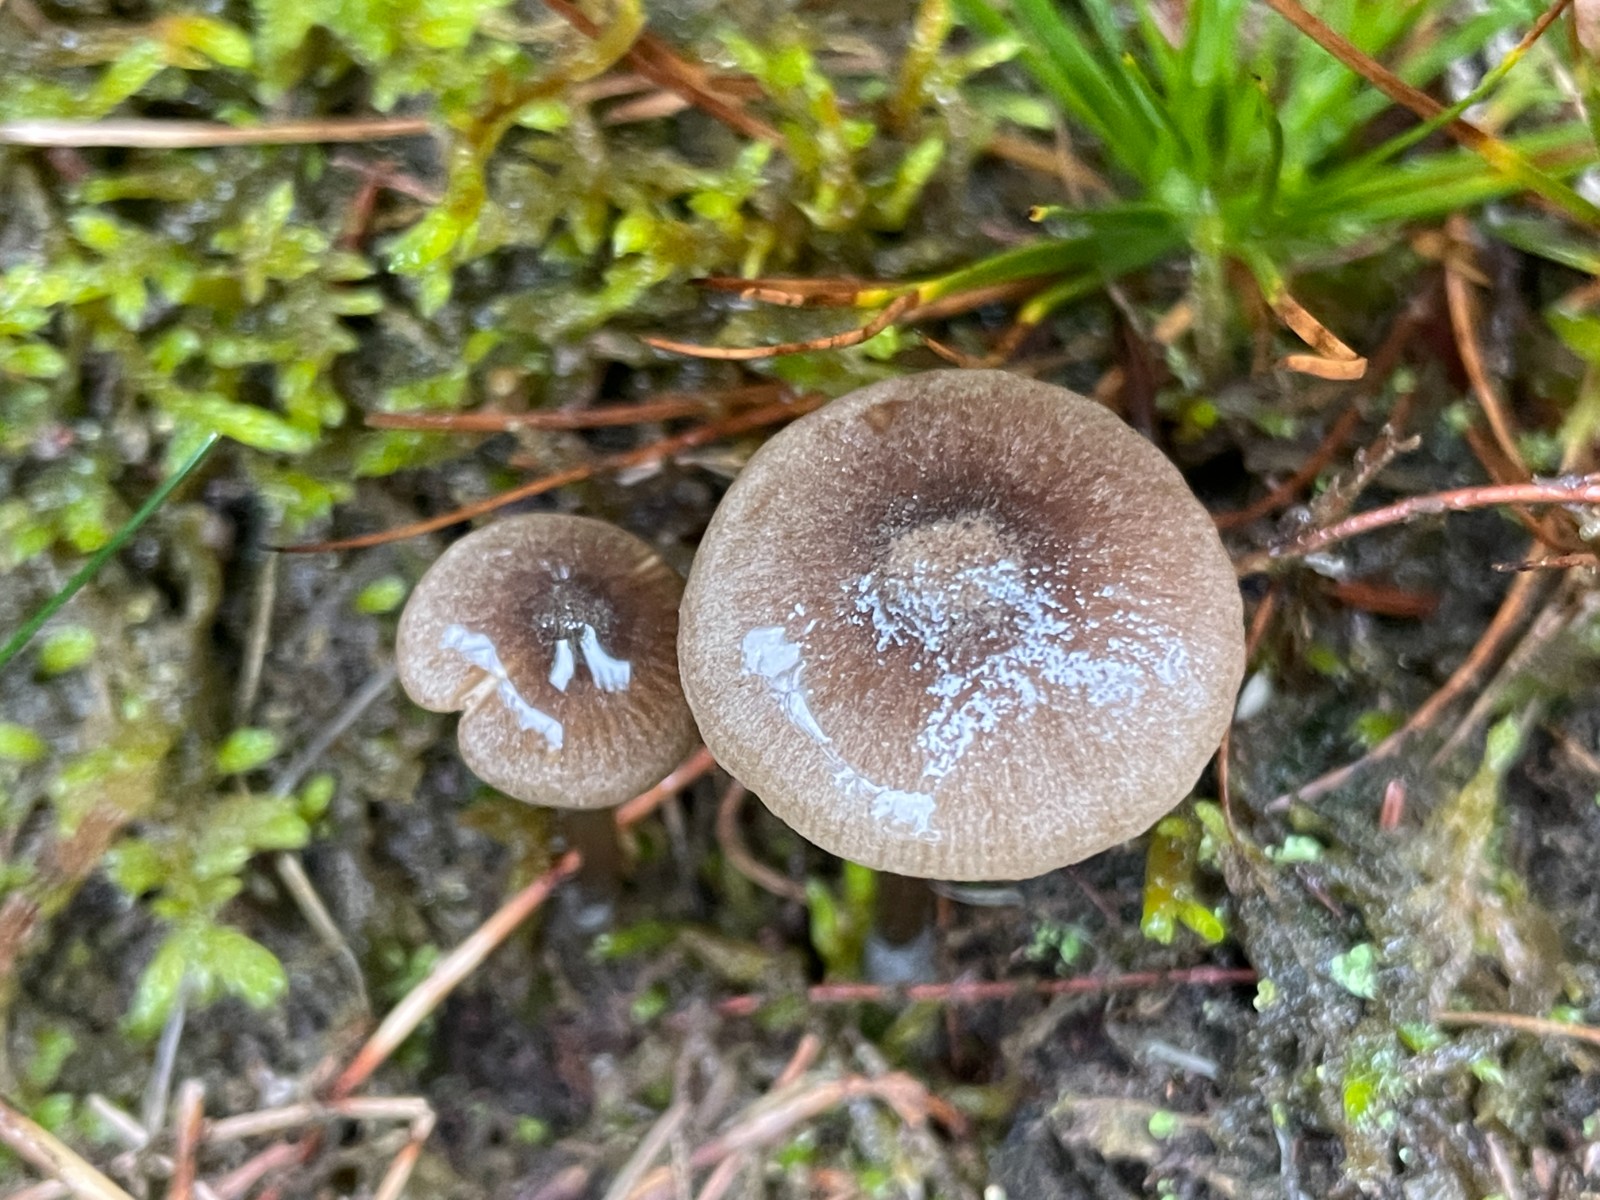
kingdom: Fungi
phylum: Basidiomycota
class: Agaricomycetes
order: Agaricales
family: Entolomataceae
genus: Entoloma
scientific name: Entoloma
